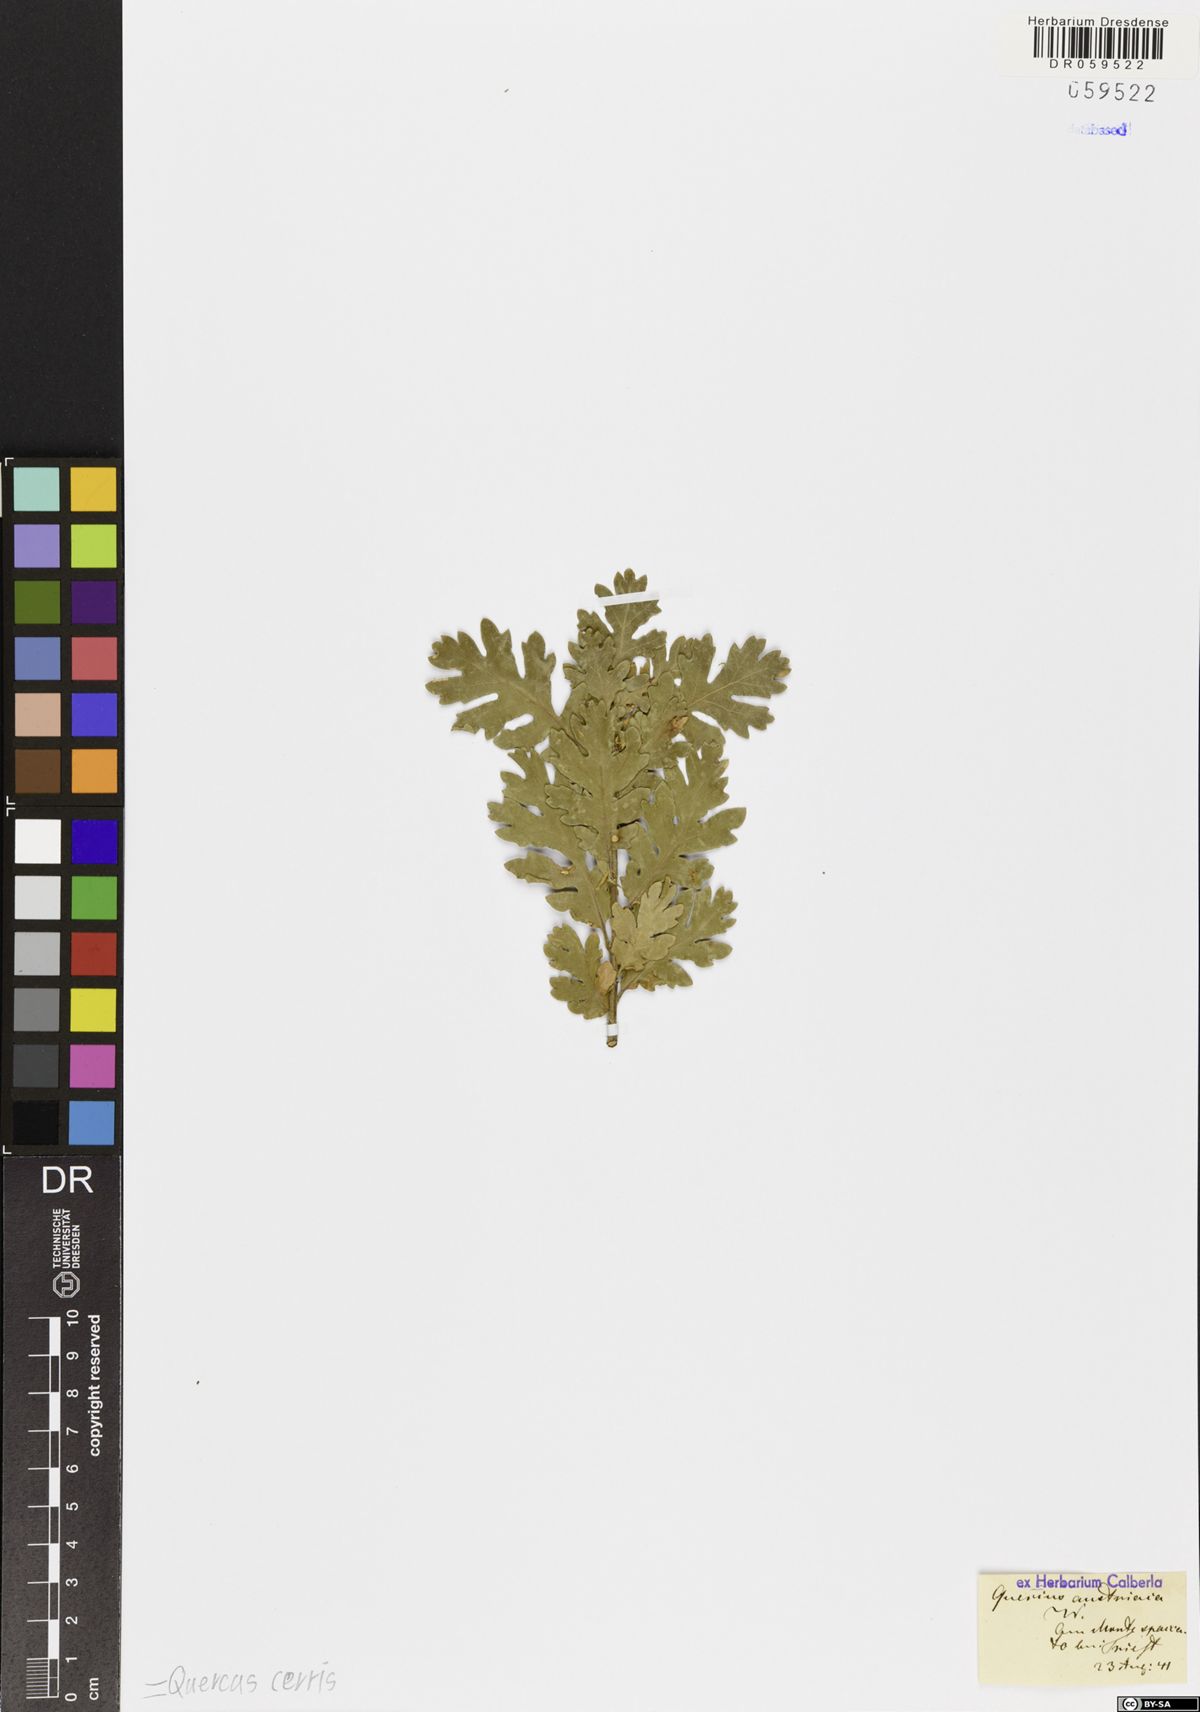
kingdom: Plantae
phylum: Tracheophyta
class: Magnoliopsida
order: Fagales
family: Fagaceae
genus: Quercus
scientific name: Quercus cerris
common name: Turkey oak
